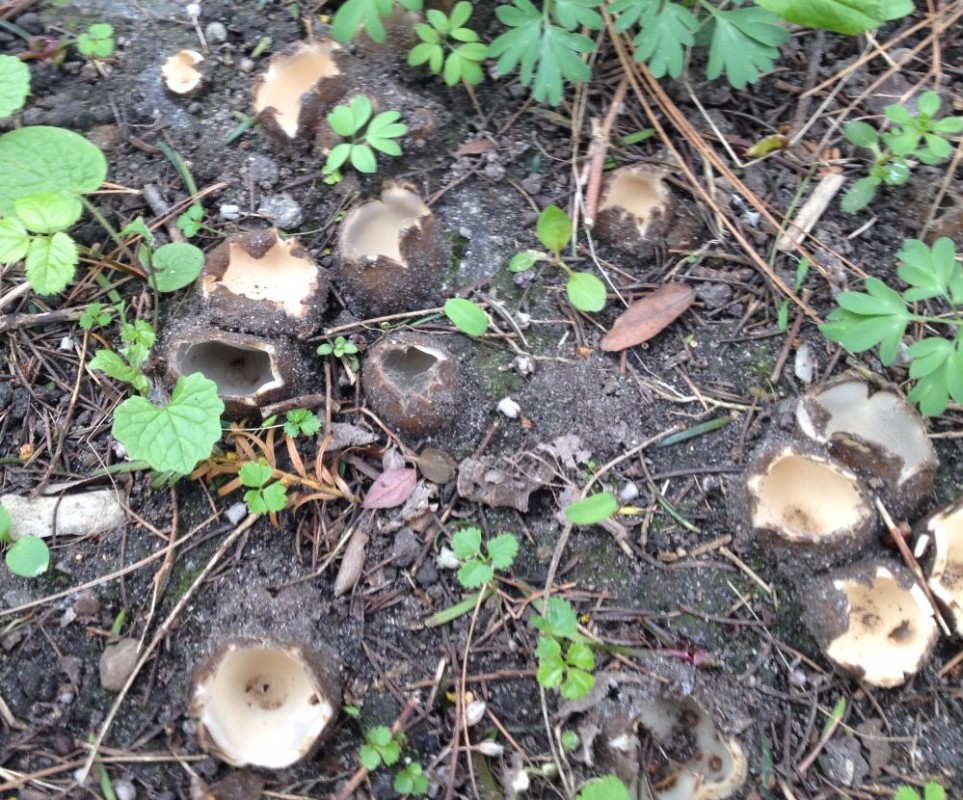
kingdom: Fungi
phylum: Ascomycota
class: Pezizomycetes
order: Pezizales
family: Pyronemataceae
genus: Geopora
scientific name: Geopora sumneriana
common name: vår-jordbæger
